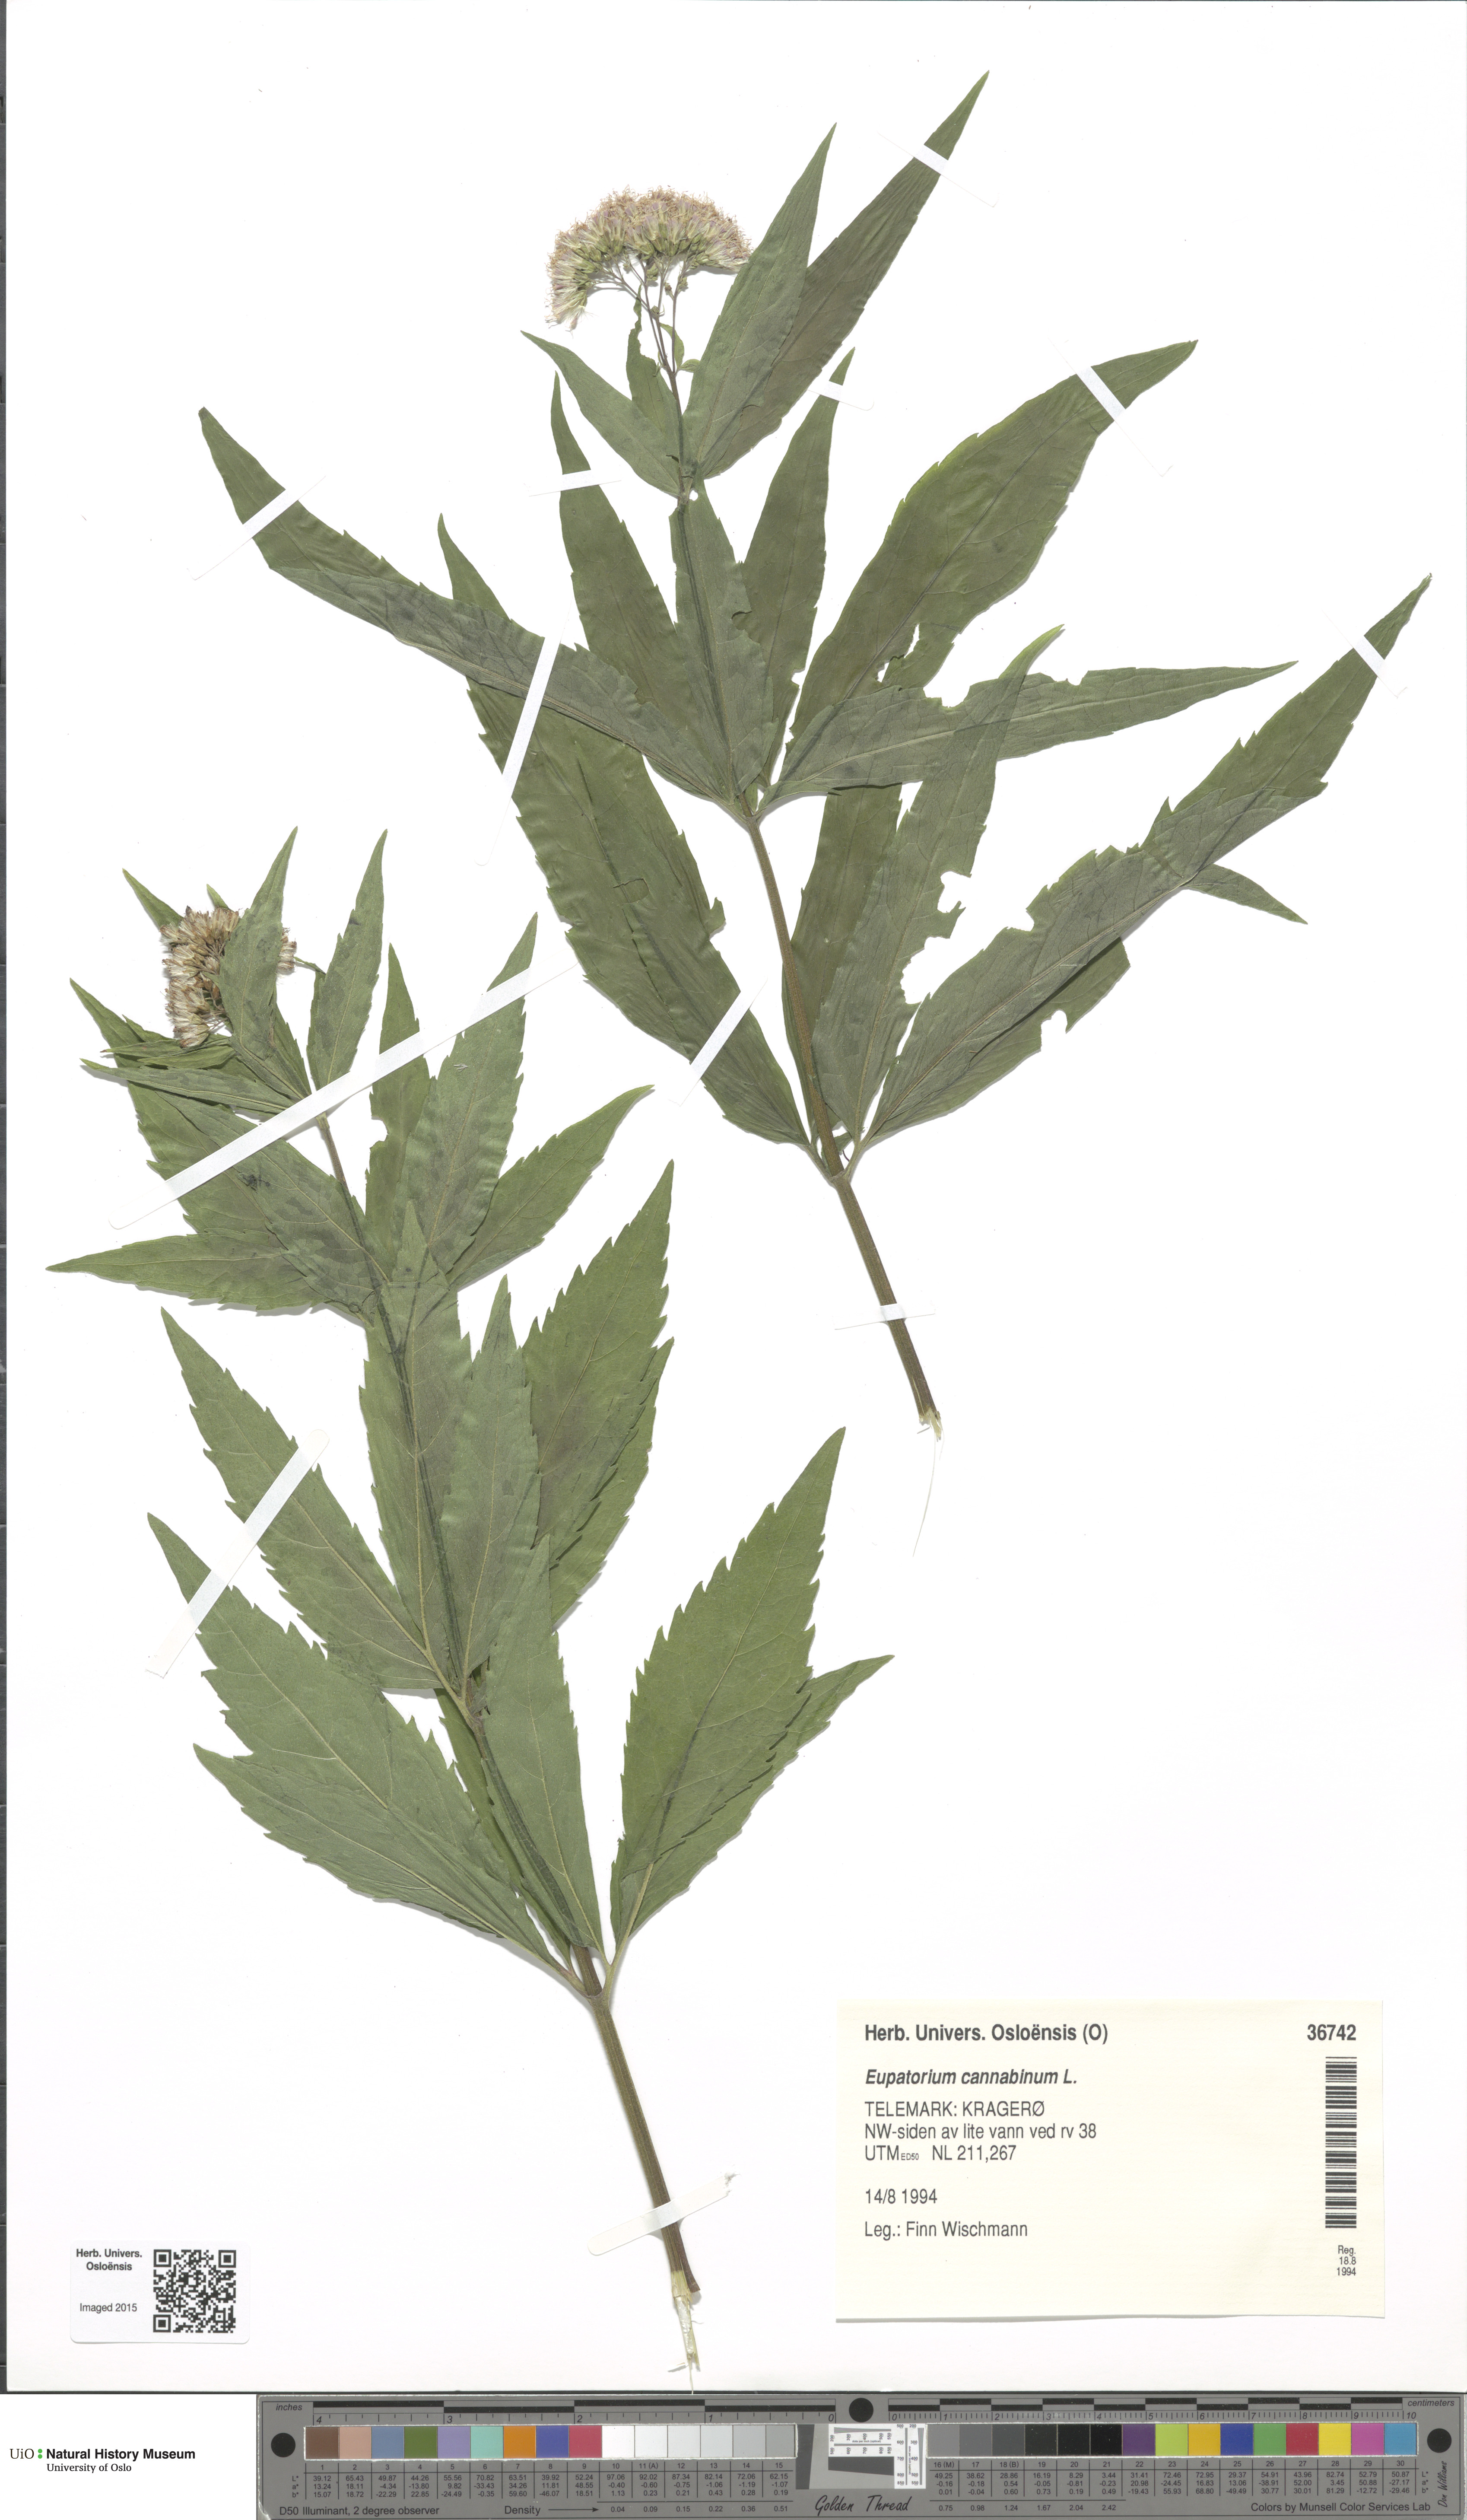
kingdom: Plantae
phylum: Tracheophyta
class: Magnoliopsida
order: Asterales
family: Asteraceae
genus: Eupatorium
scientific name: Eupatorium cannabinum
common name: Hemp-agrimony
